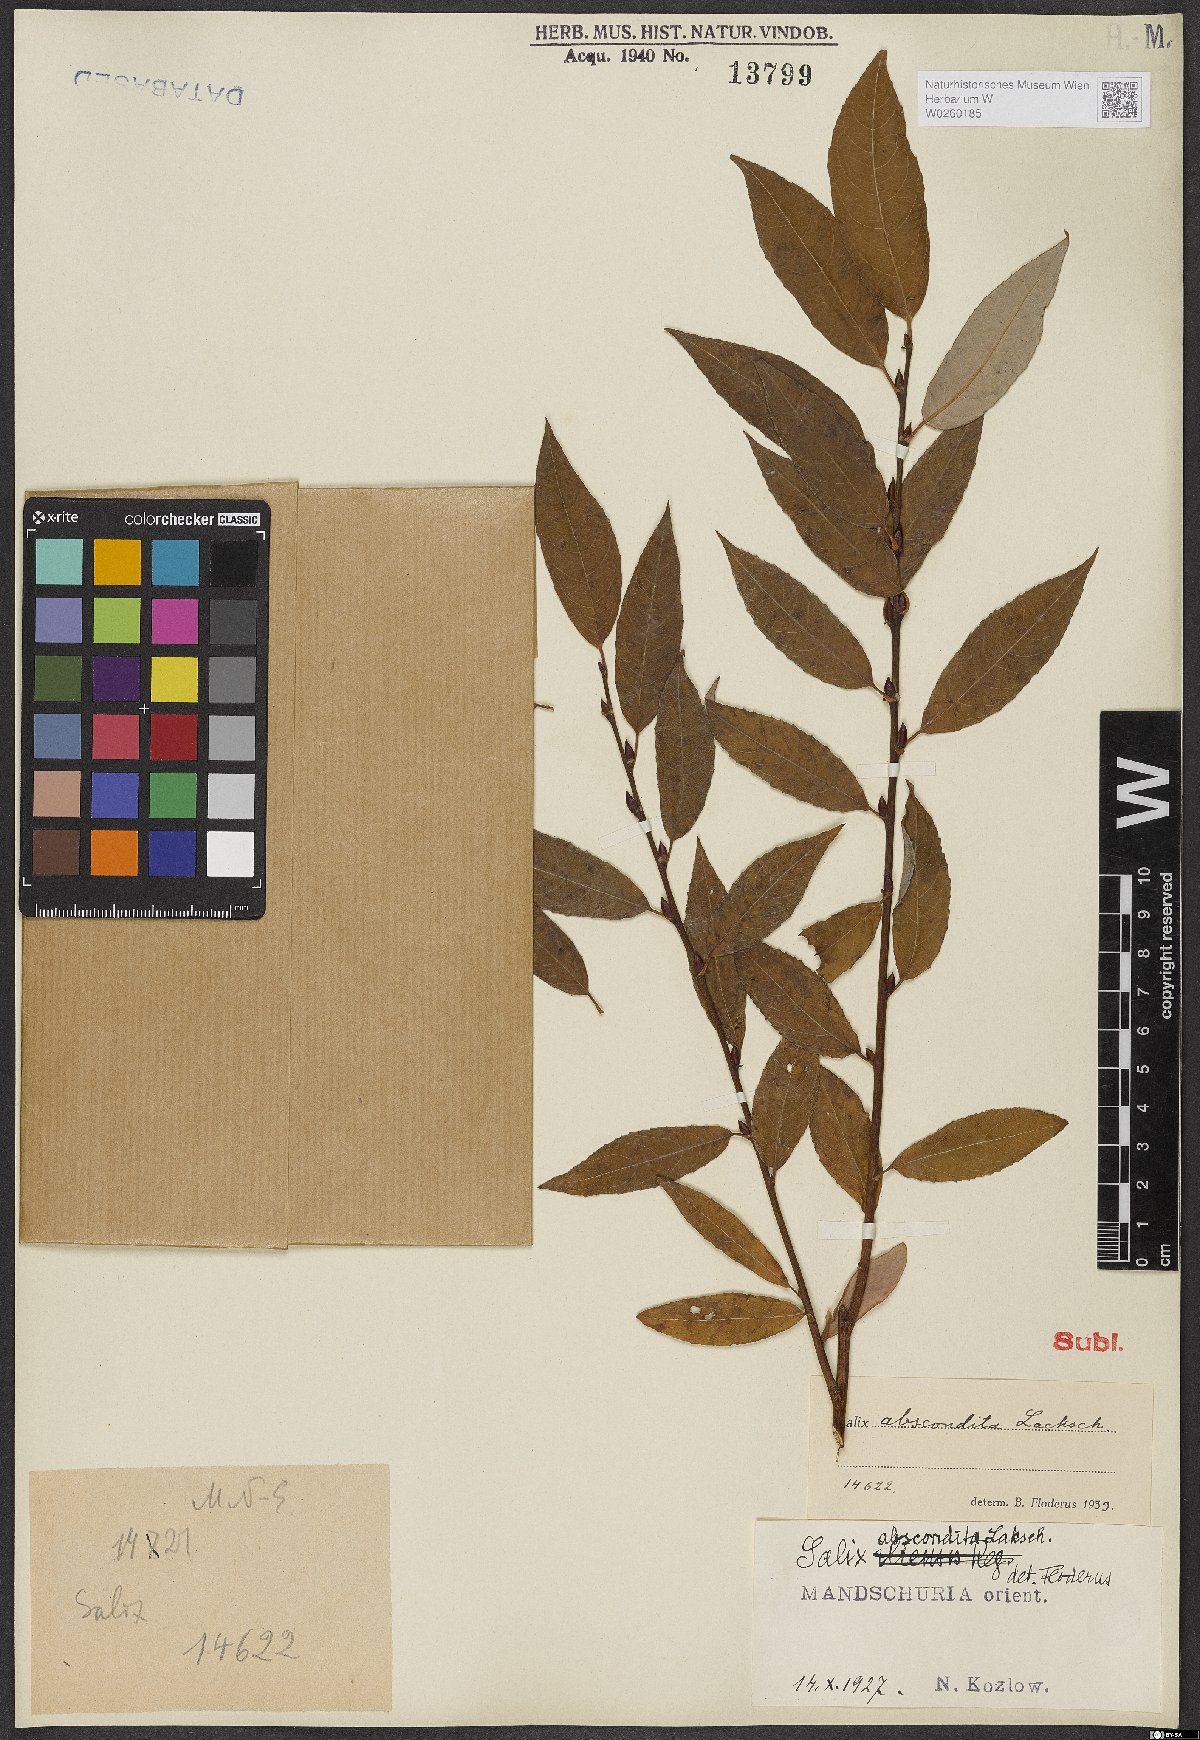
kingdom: Plantae
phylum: Tracheophyta
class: Magnoliopsida
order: Malpighiales
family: Salicaceae
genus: Salix
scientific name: Salix abscondita
